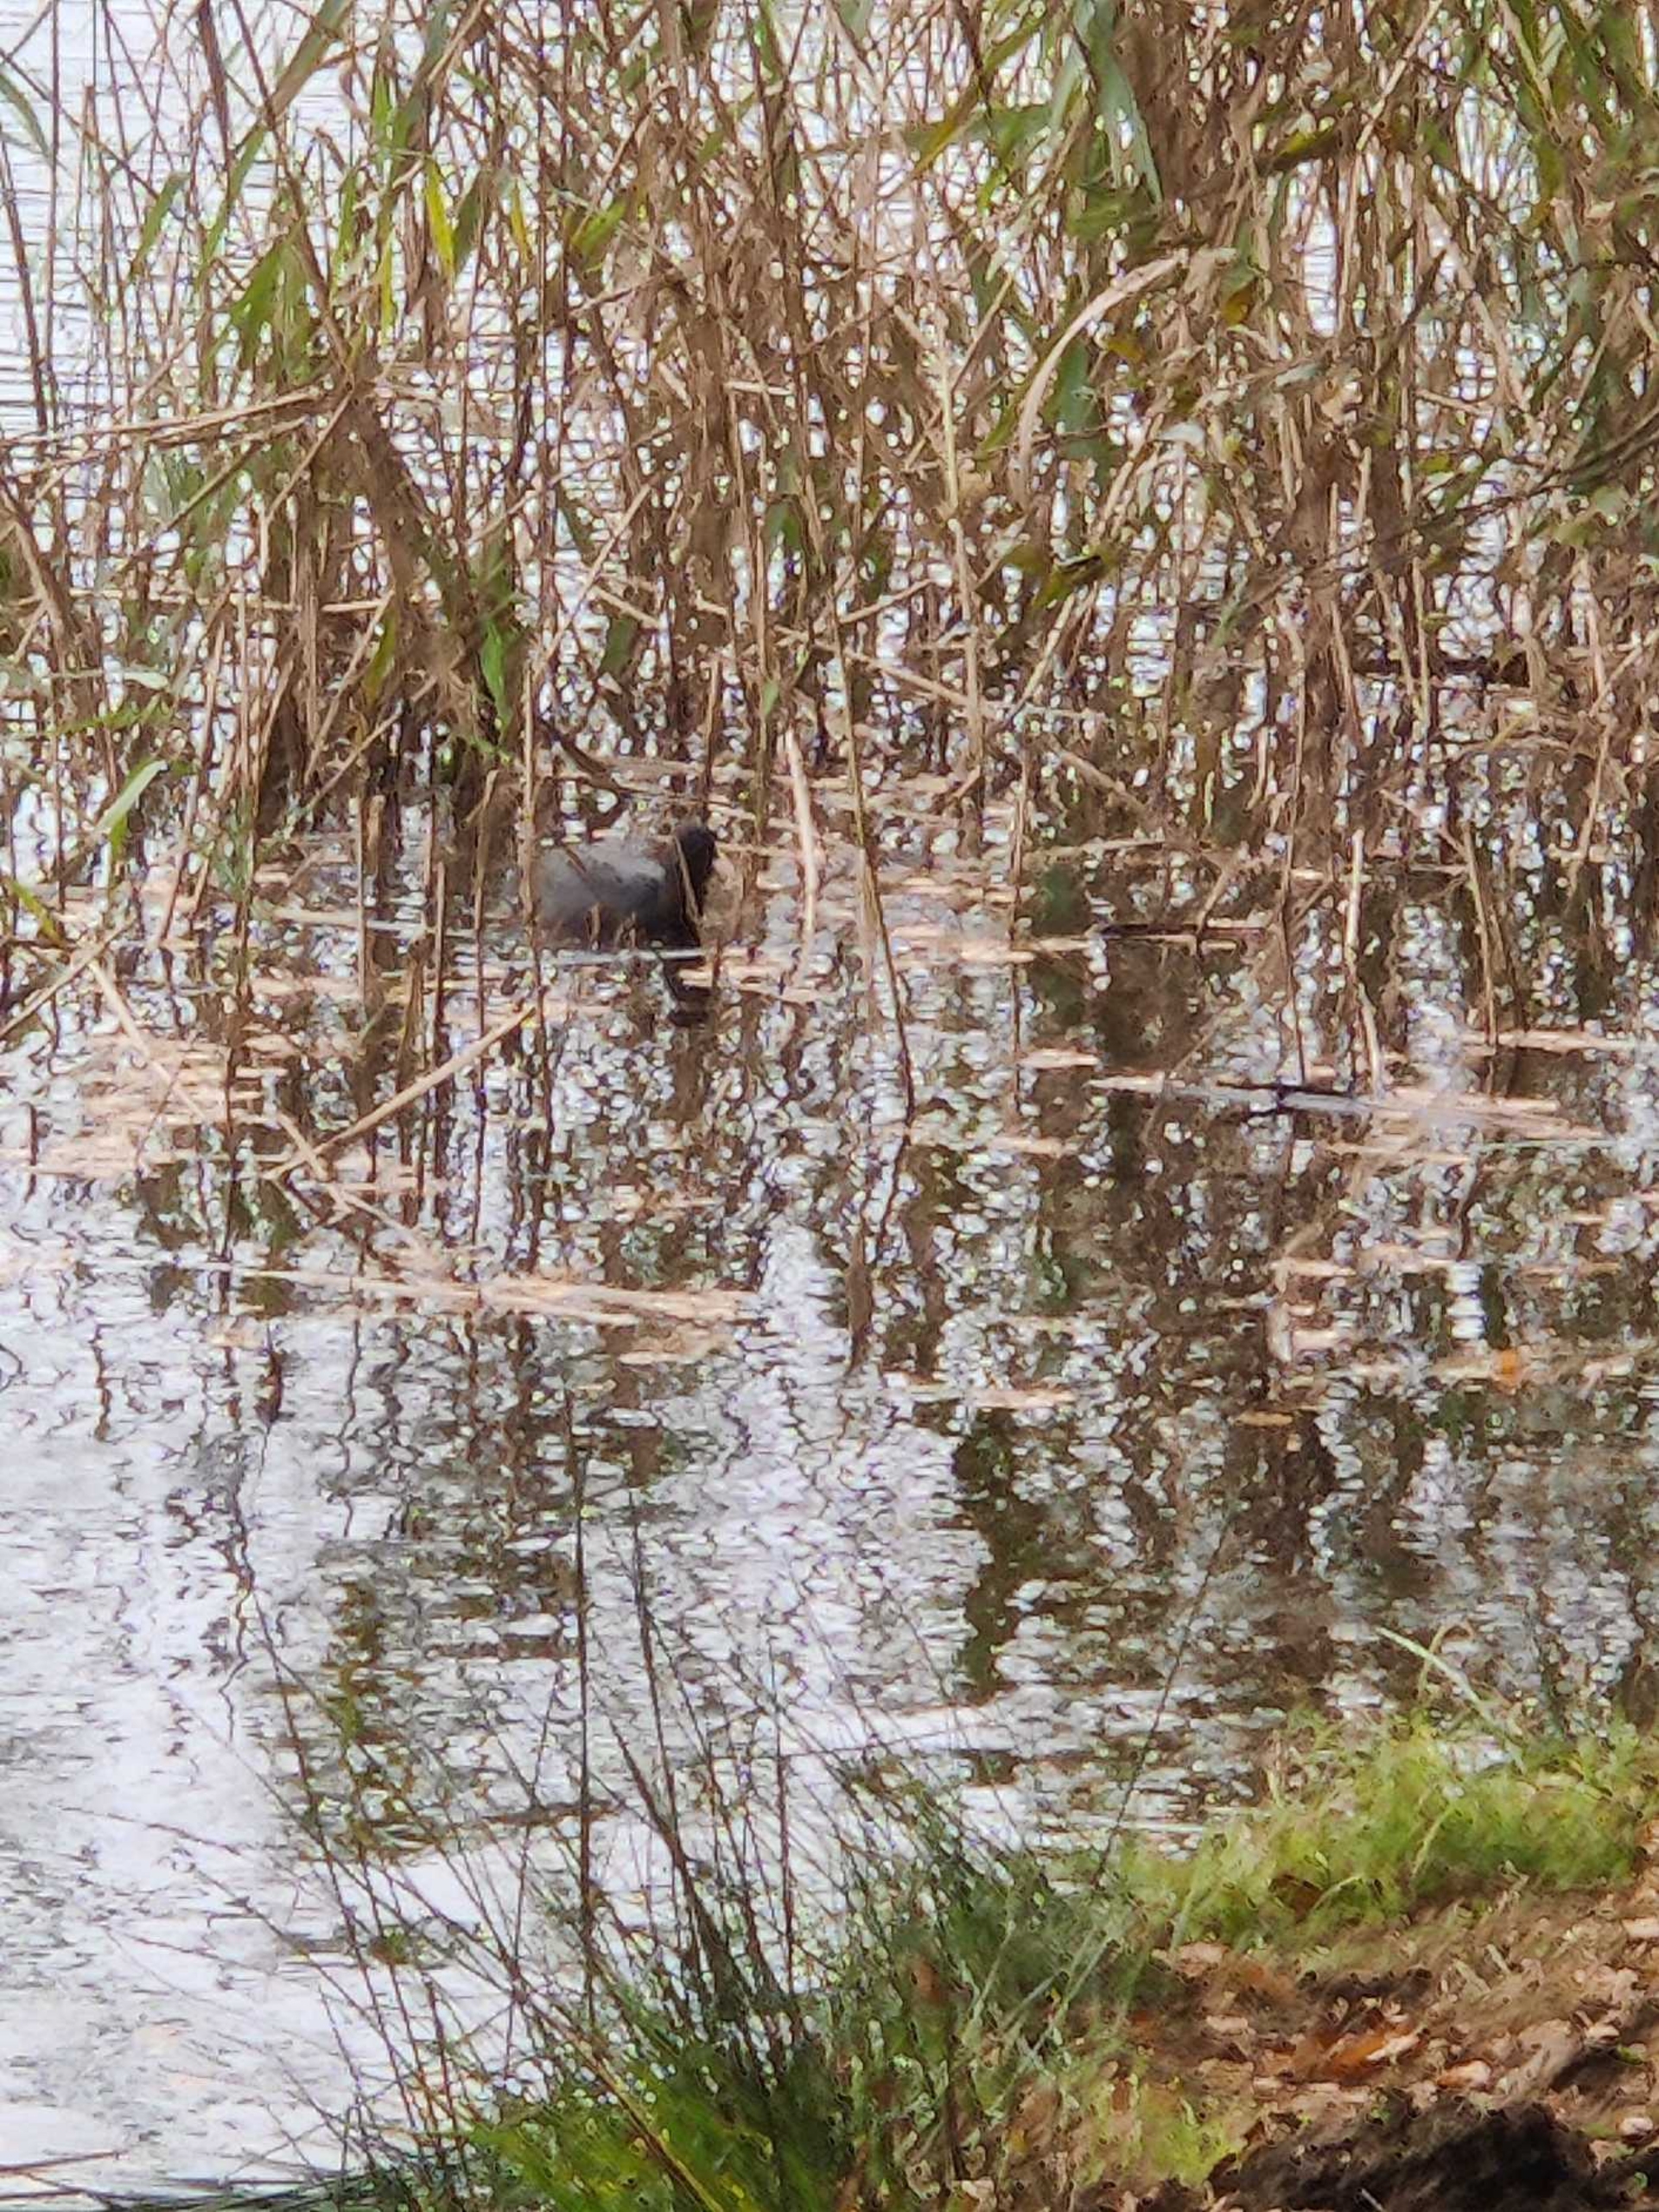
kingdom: Animalia
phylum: Chordata
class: Aves
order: Gruiformes
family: Rallidae
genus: Fulica
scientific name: Fulica atra
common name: Blishøne
